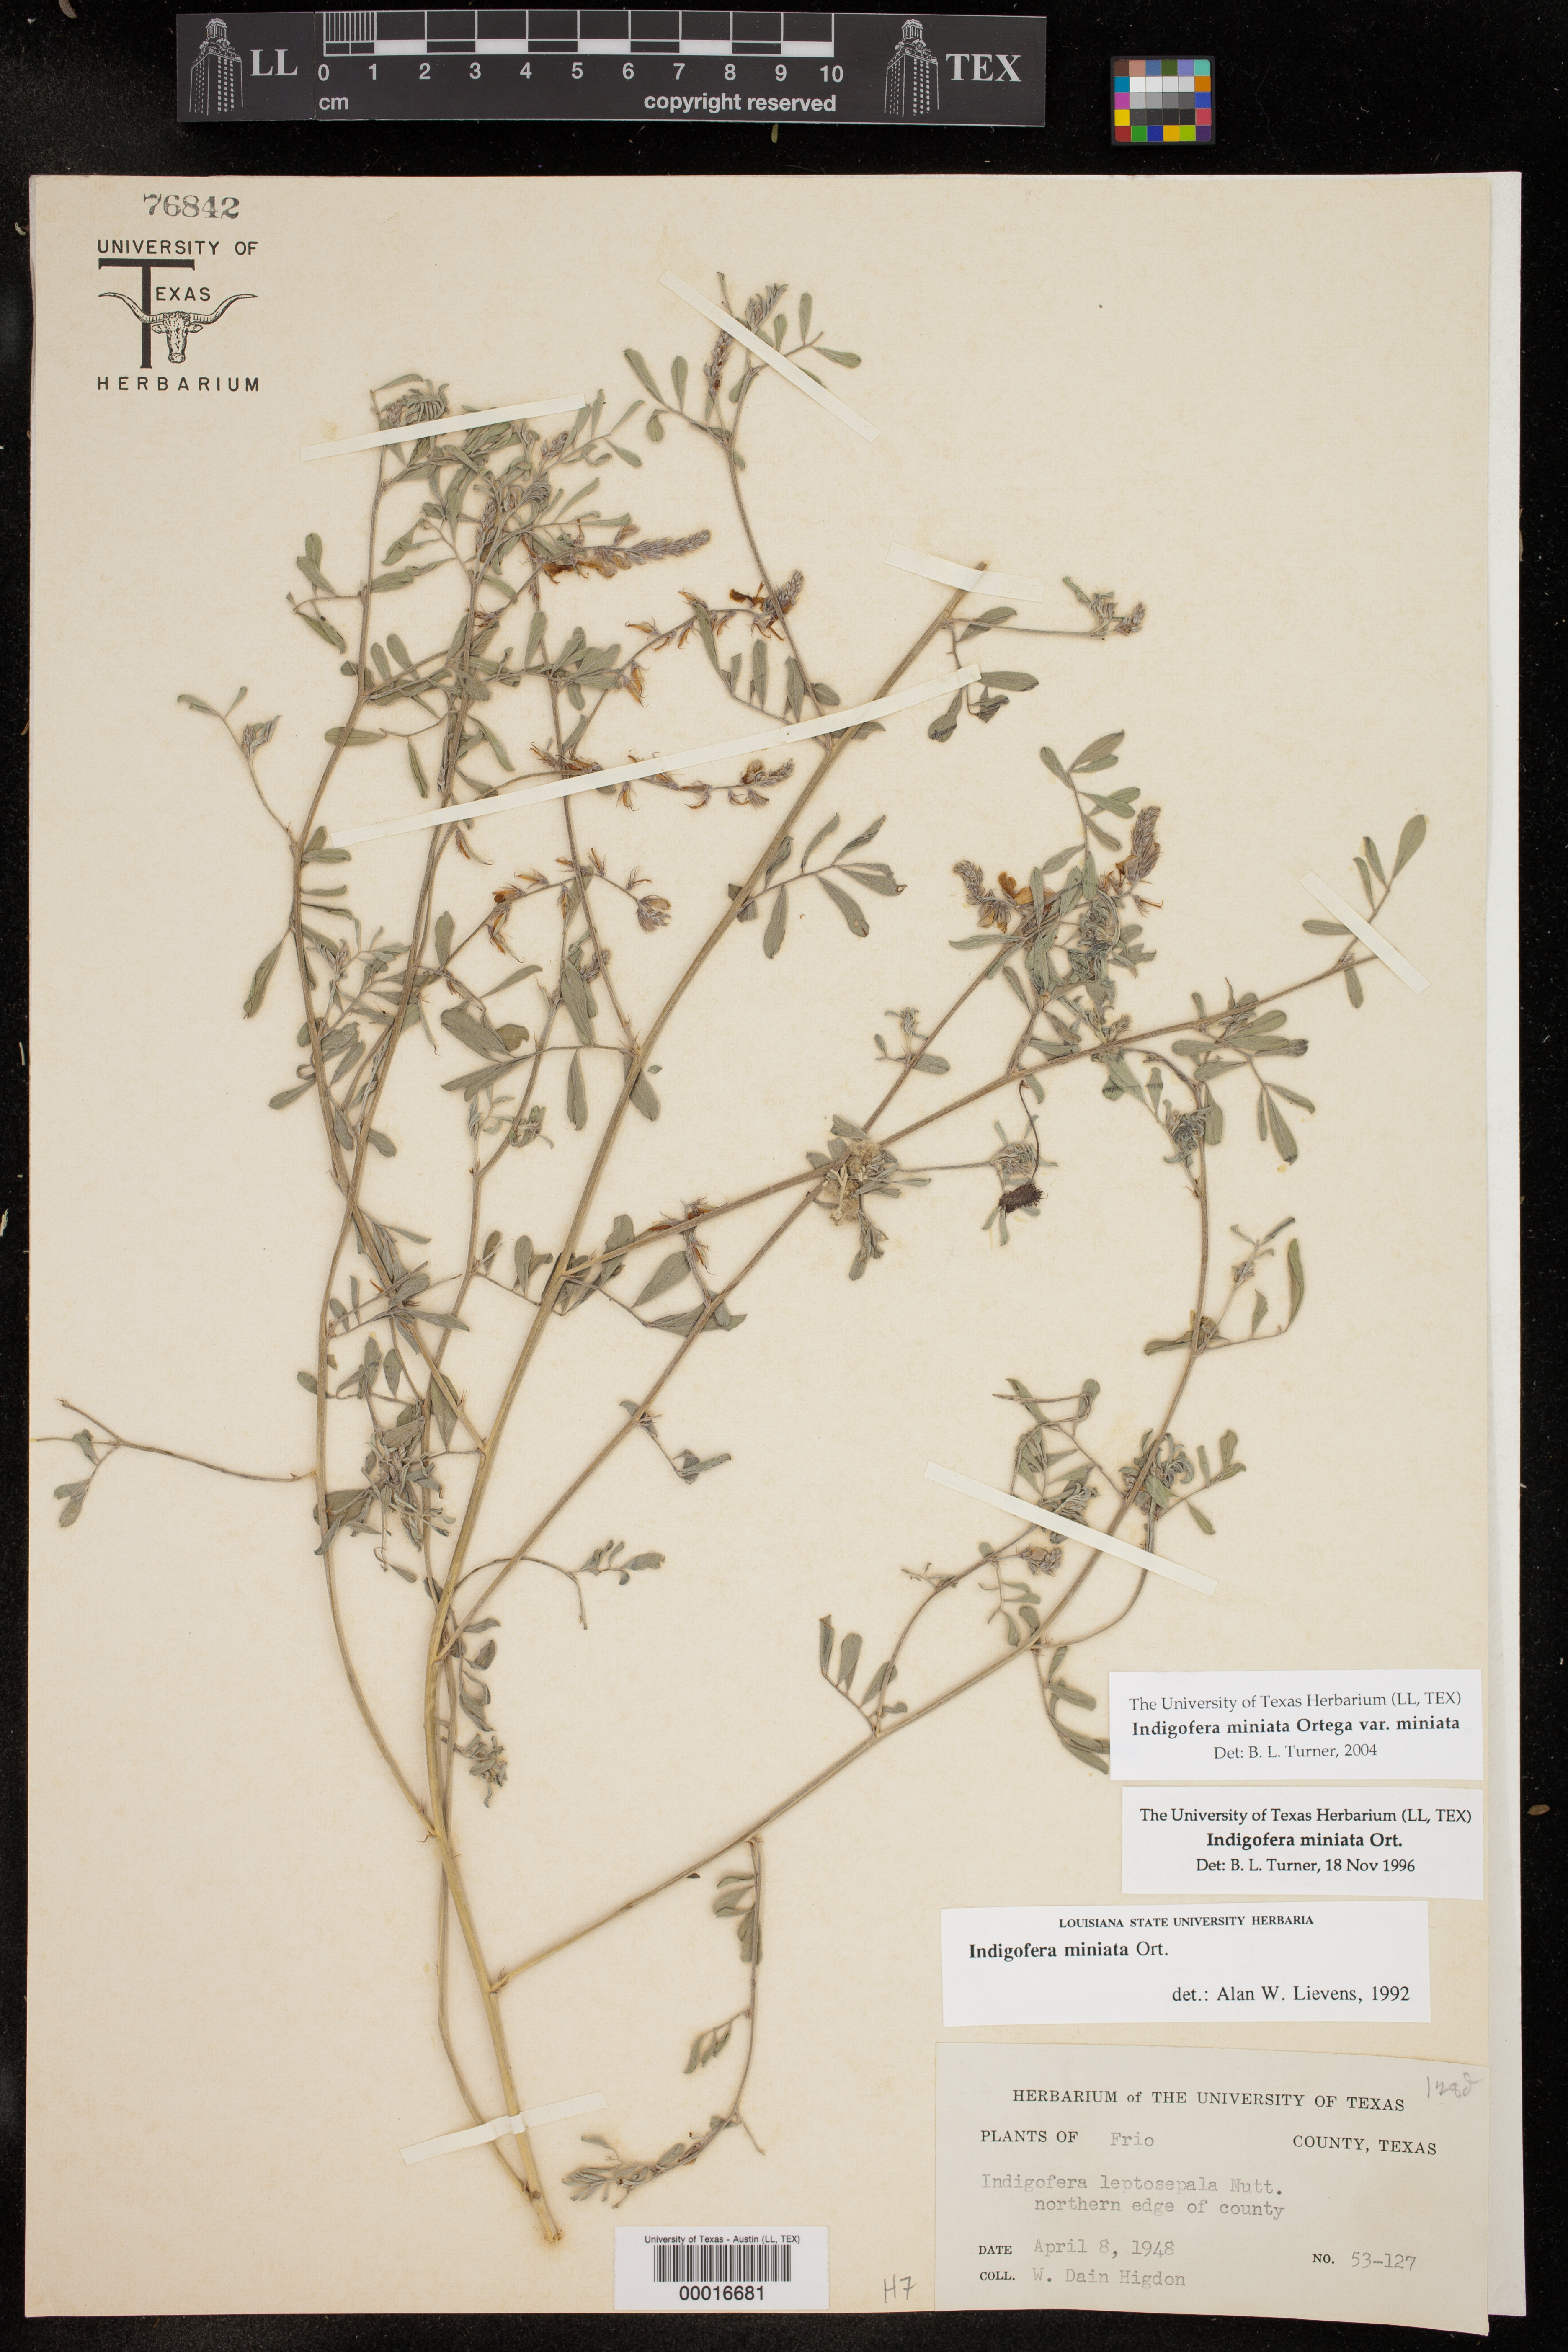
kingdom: Plantae
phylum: Tracheophyta
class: Magnoliopsida
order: Fabales
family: Fabaceae
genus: Indigofera
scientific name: Indigofera miniata
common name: Coast indigo
